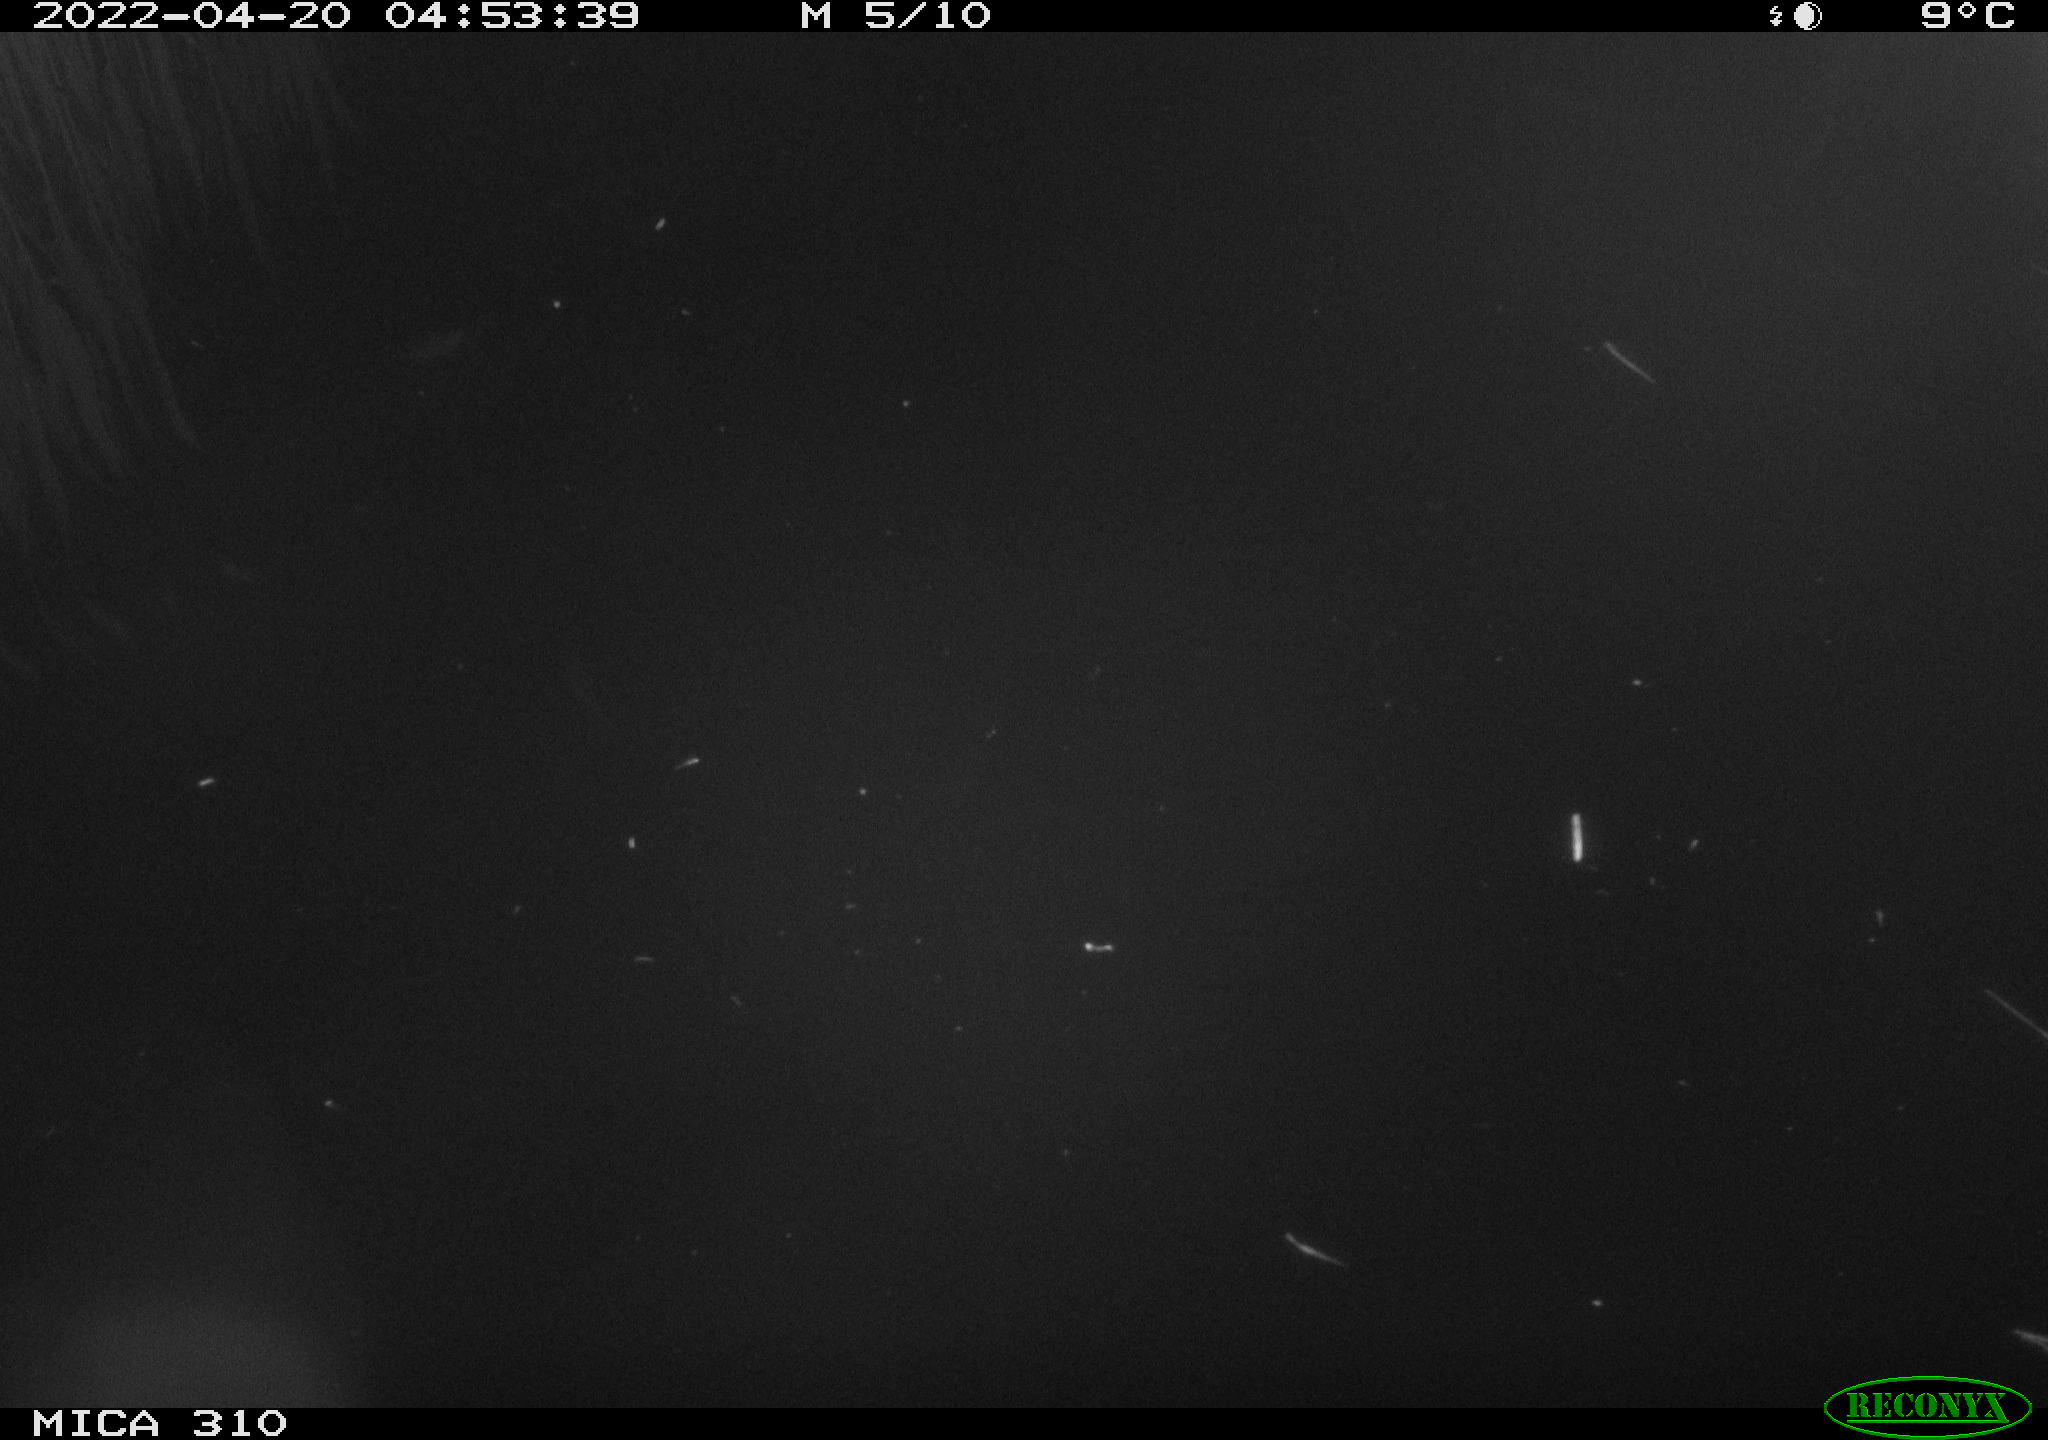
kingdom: Animalia
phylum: Chordata
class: Aves
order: Anseriformes
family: Anatidae
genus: Anas
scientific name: Anas platyrhynchos
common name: Mallard
